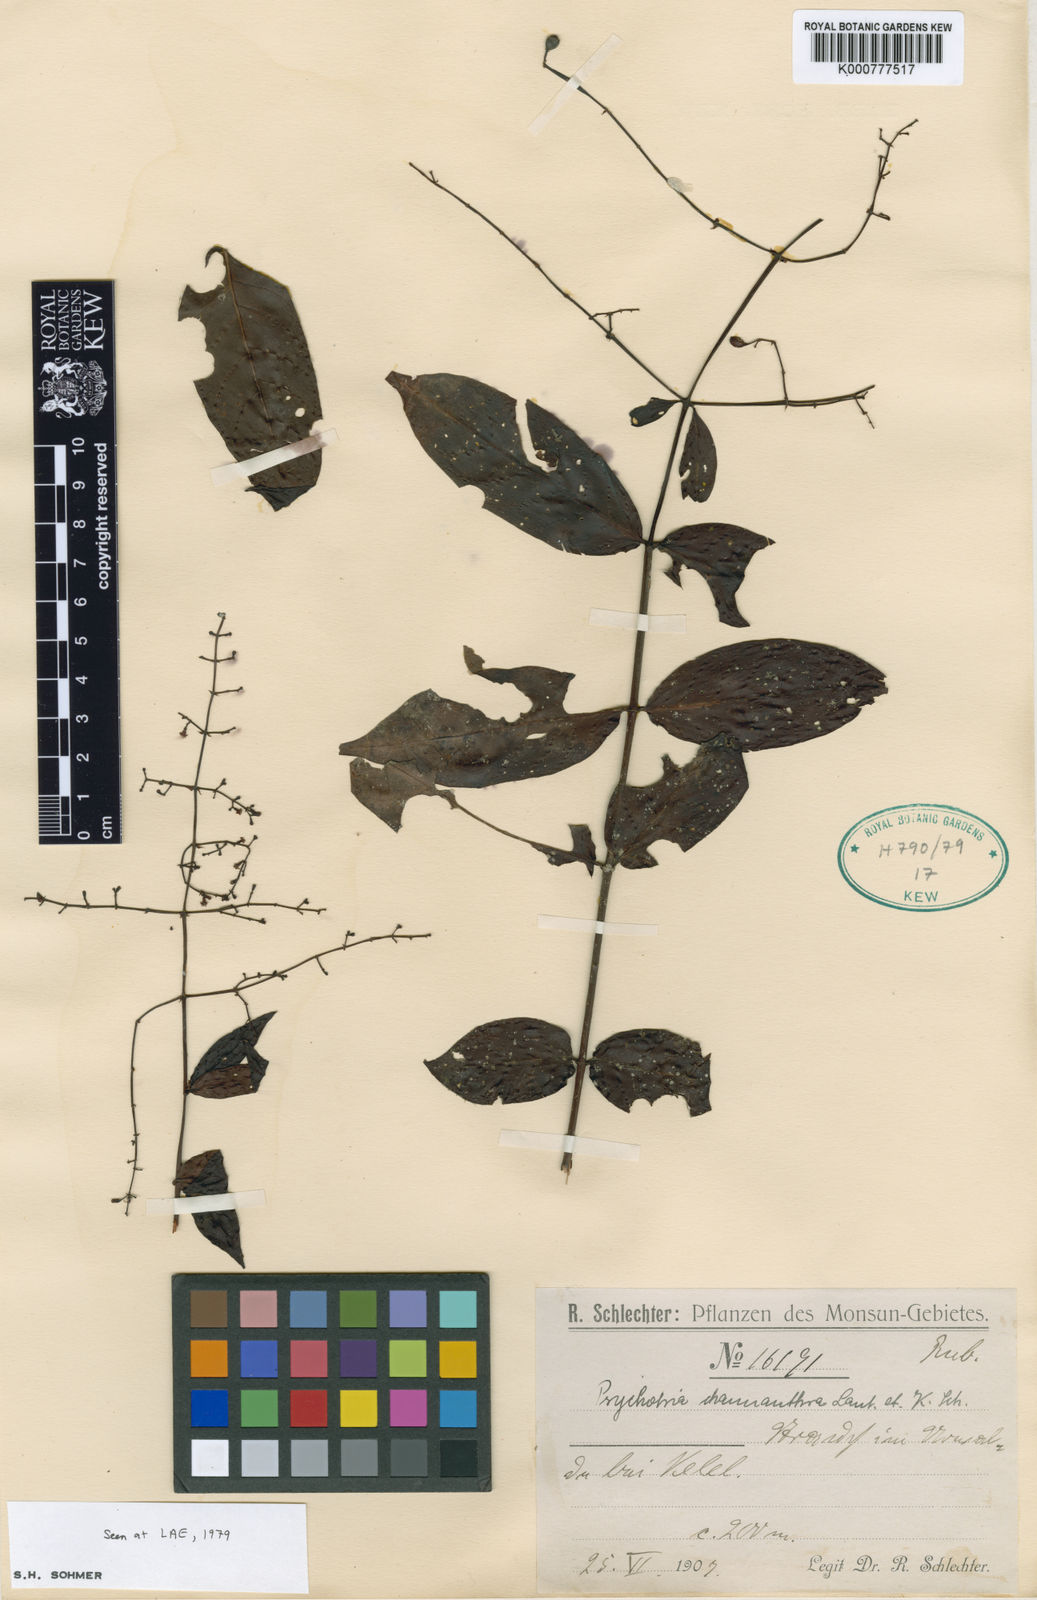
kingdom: Plantae
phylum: Tracheophyta
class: Magnoliopsida
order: Gentianales
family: Rubiaceae
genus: Psychotria
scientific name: Psychotria chaunantha
